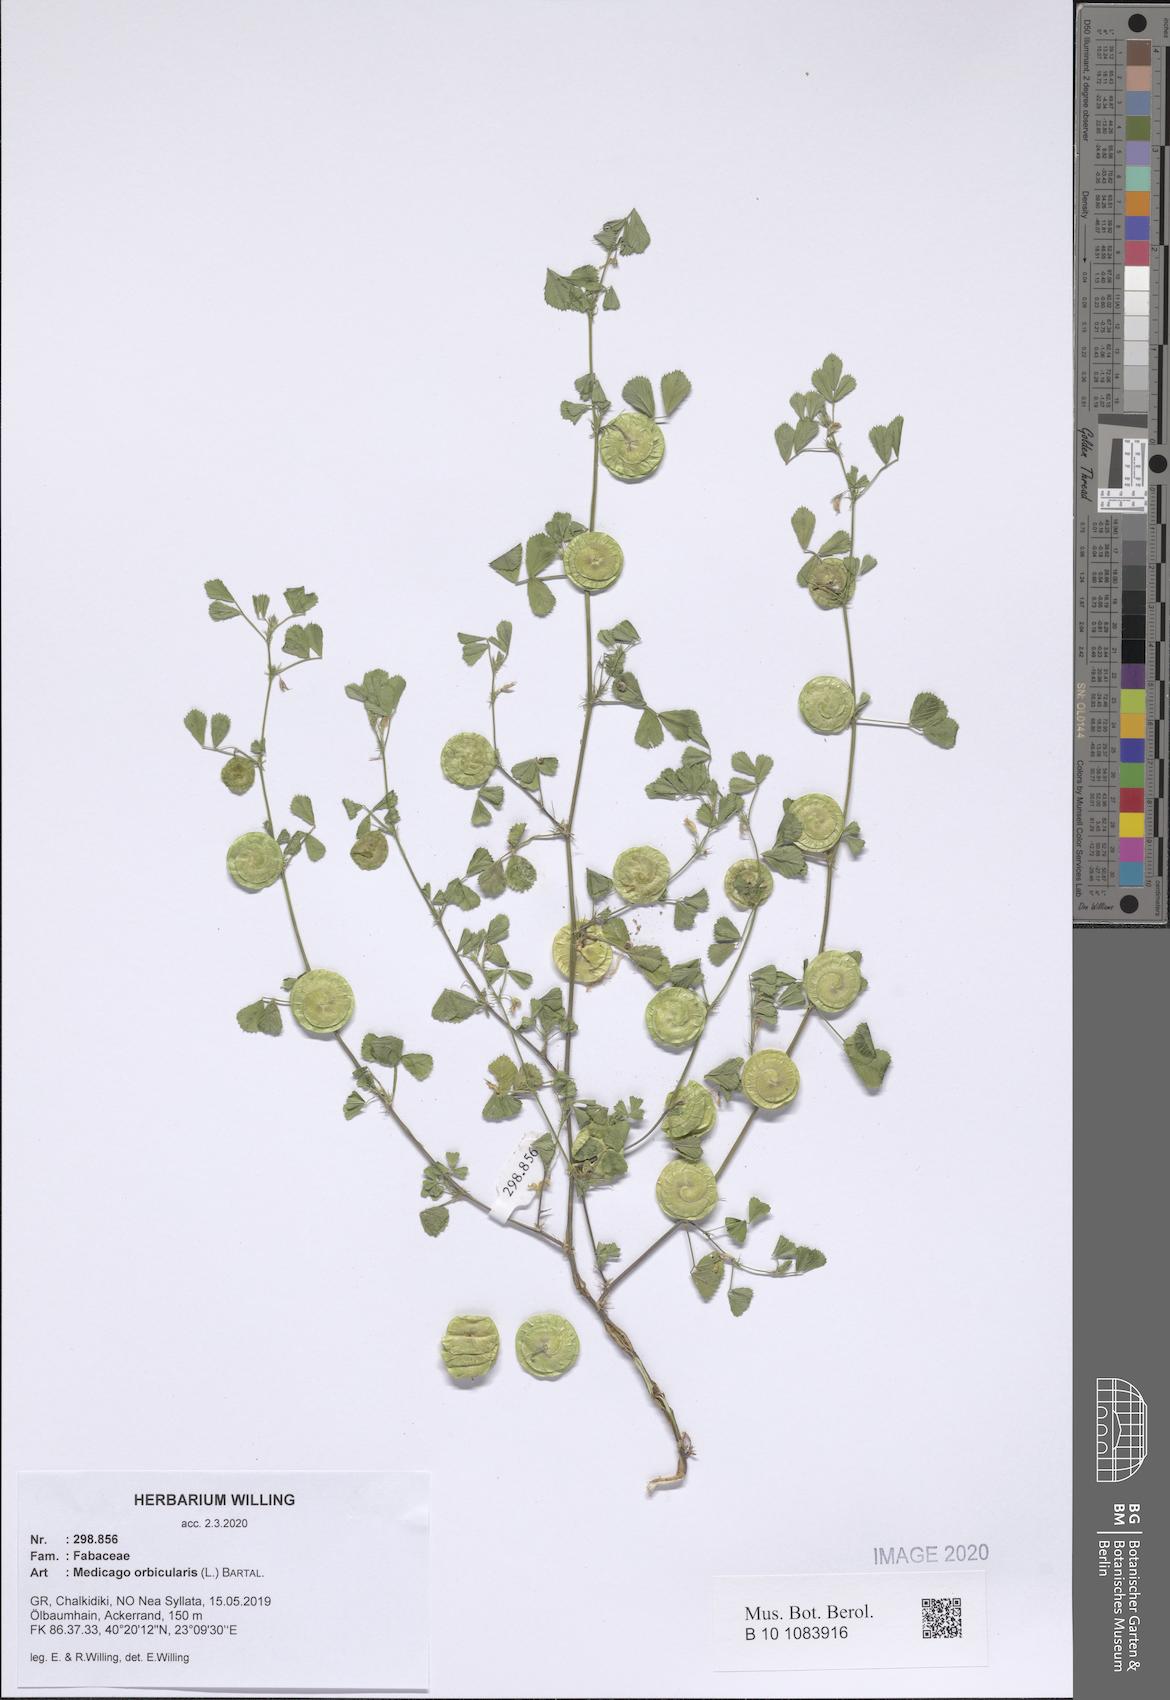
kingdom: Plantae
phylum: Tracheophyta
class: Magnoliopsida
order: Fabales
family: Fabaceae
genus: Medicago
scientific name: Medicago orbicularis
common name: Button medick
